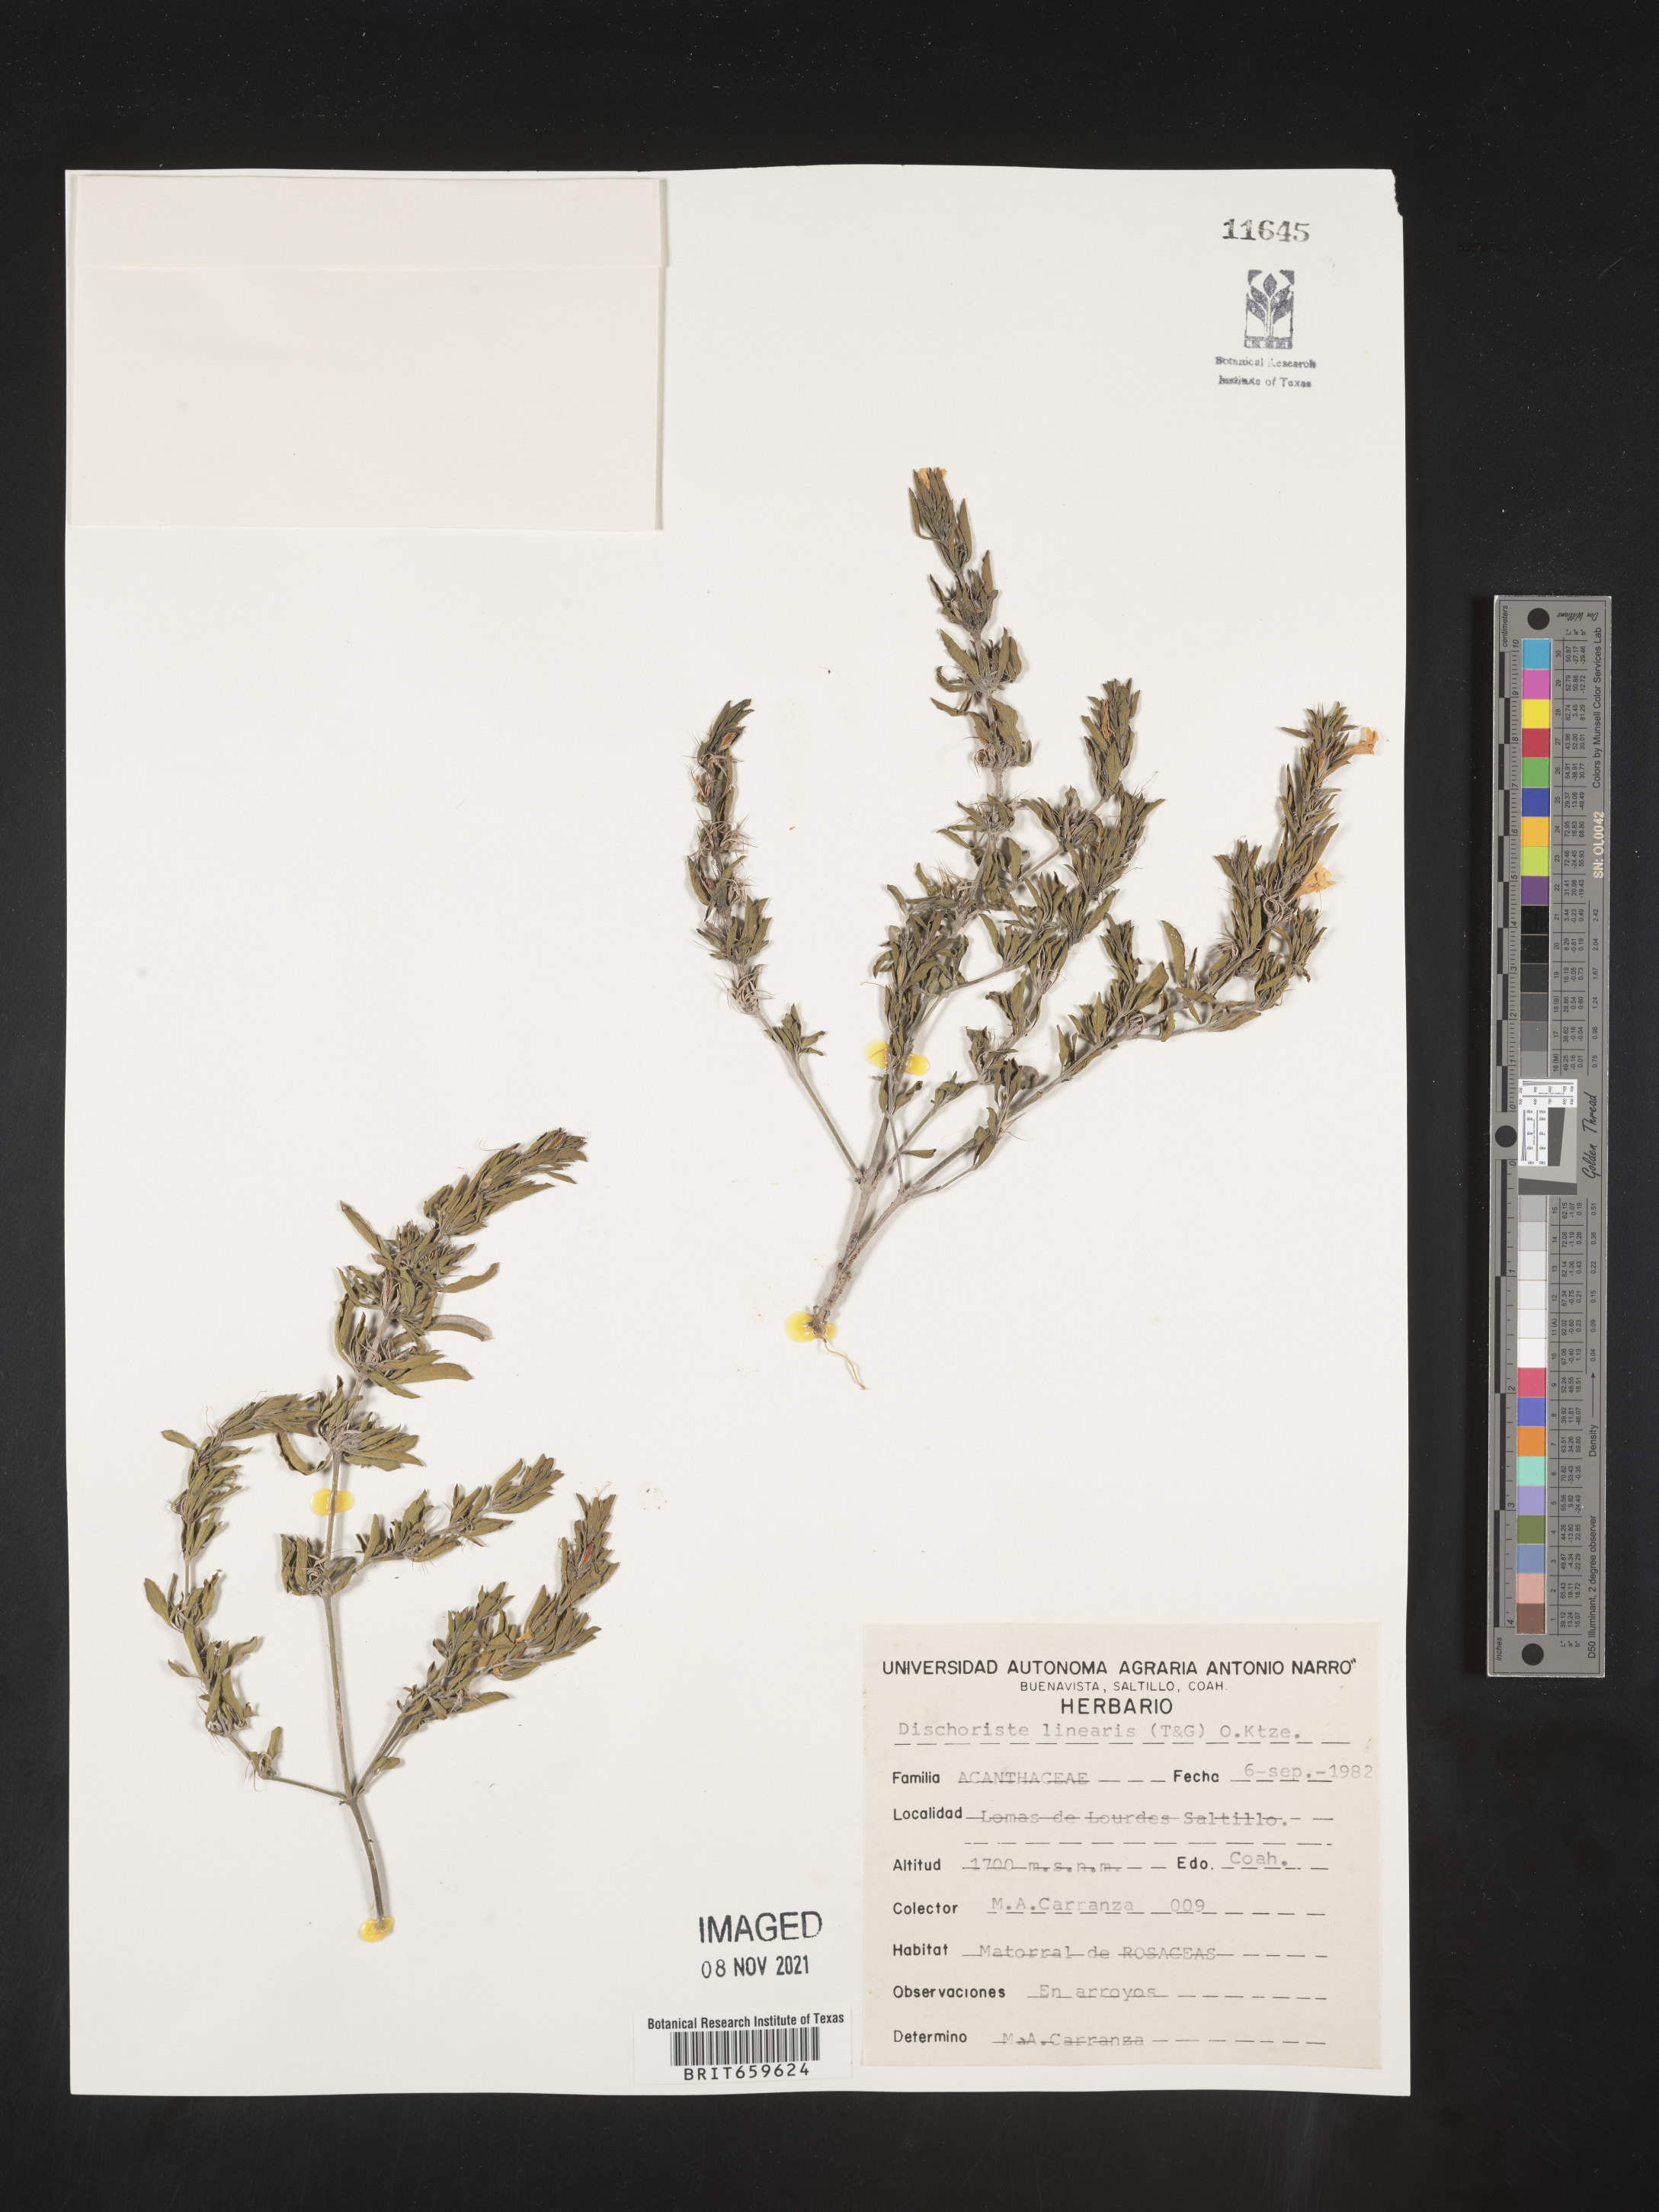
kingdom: Plantae
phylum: Tracheophyta
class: Magnoliopsida
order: Lamiales
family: Acanthaceae
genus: Dyschoriste
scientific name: Dyschoriste
